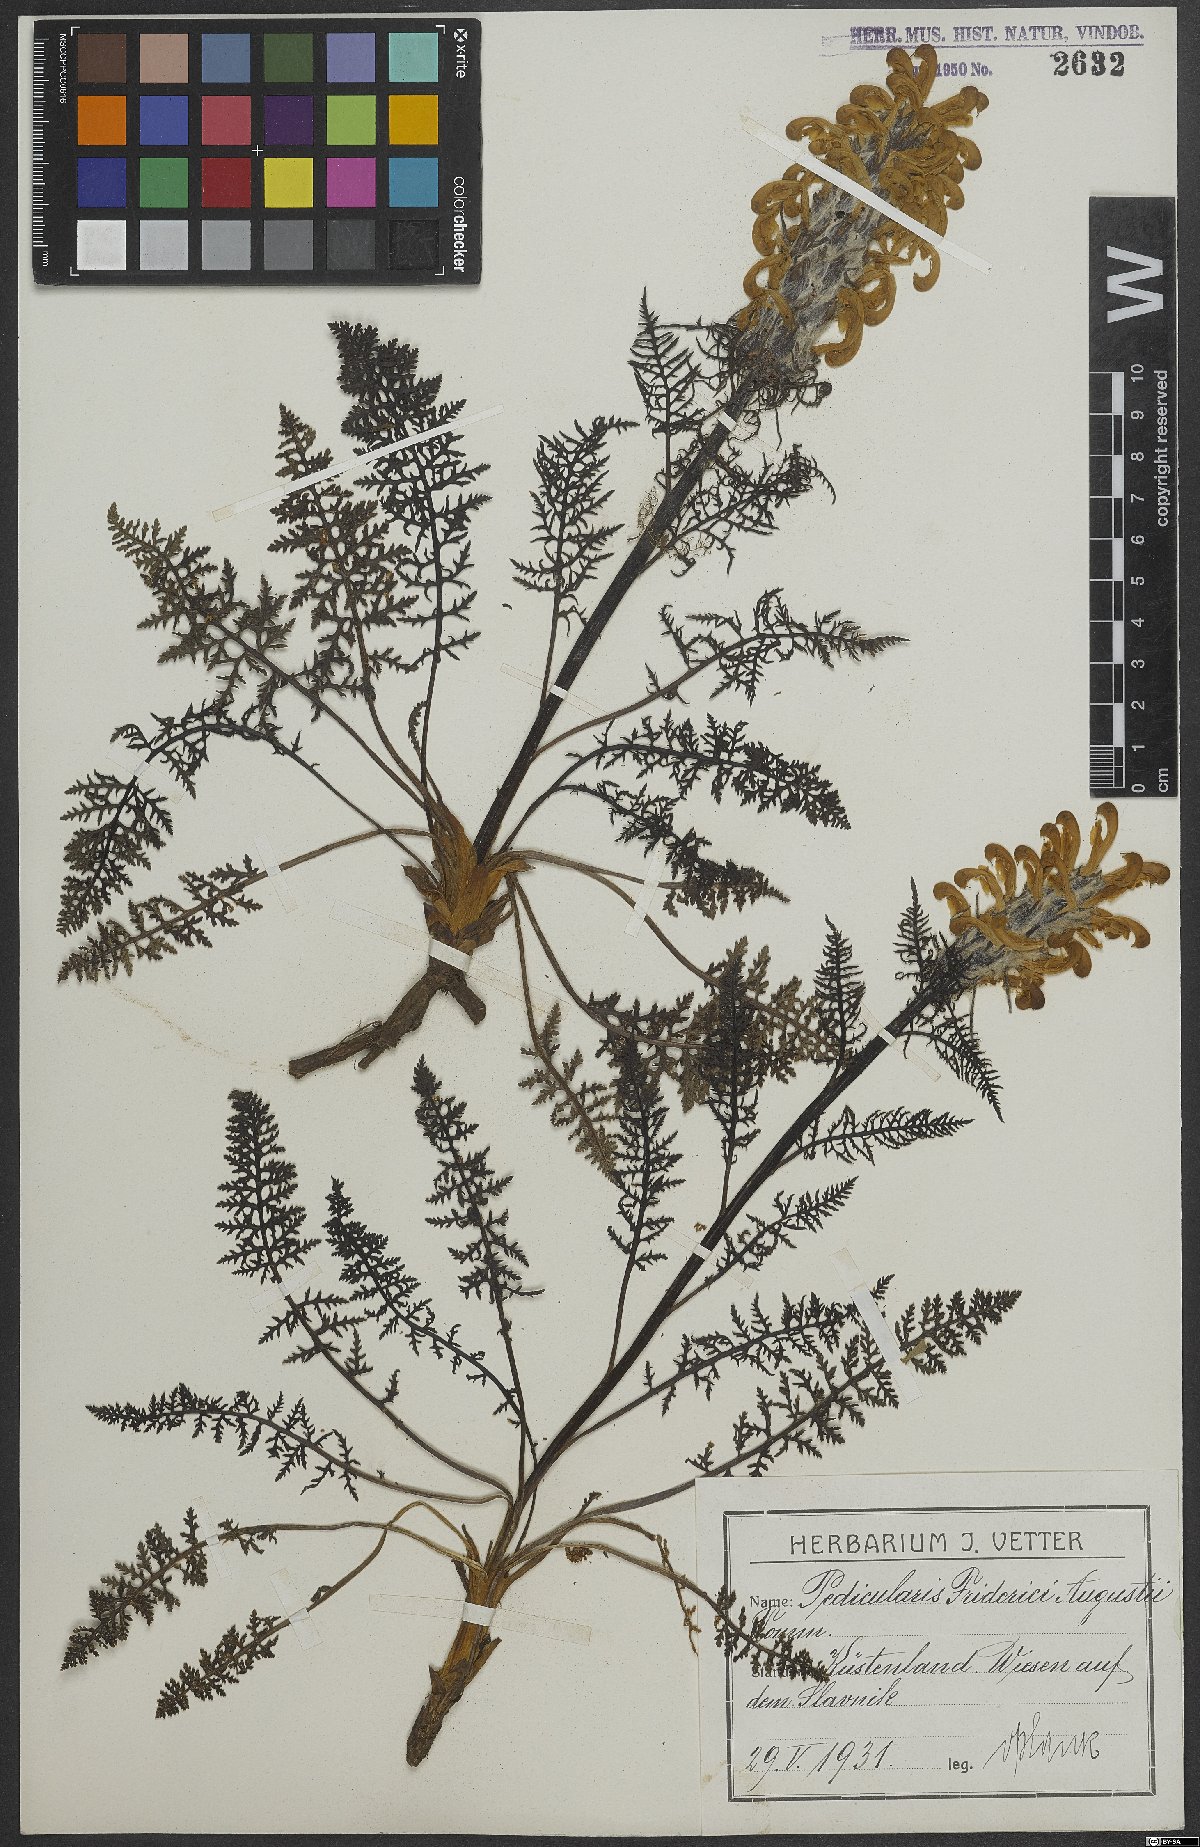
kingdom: Plantae
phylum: Tracheophyta
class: Magnoliopsida
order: Lamiales
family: Orobanchaceae
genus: Pedicularis
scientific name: Pedicularis friderici-augusti
